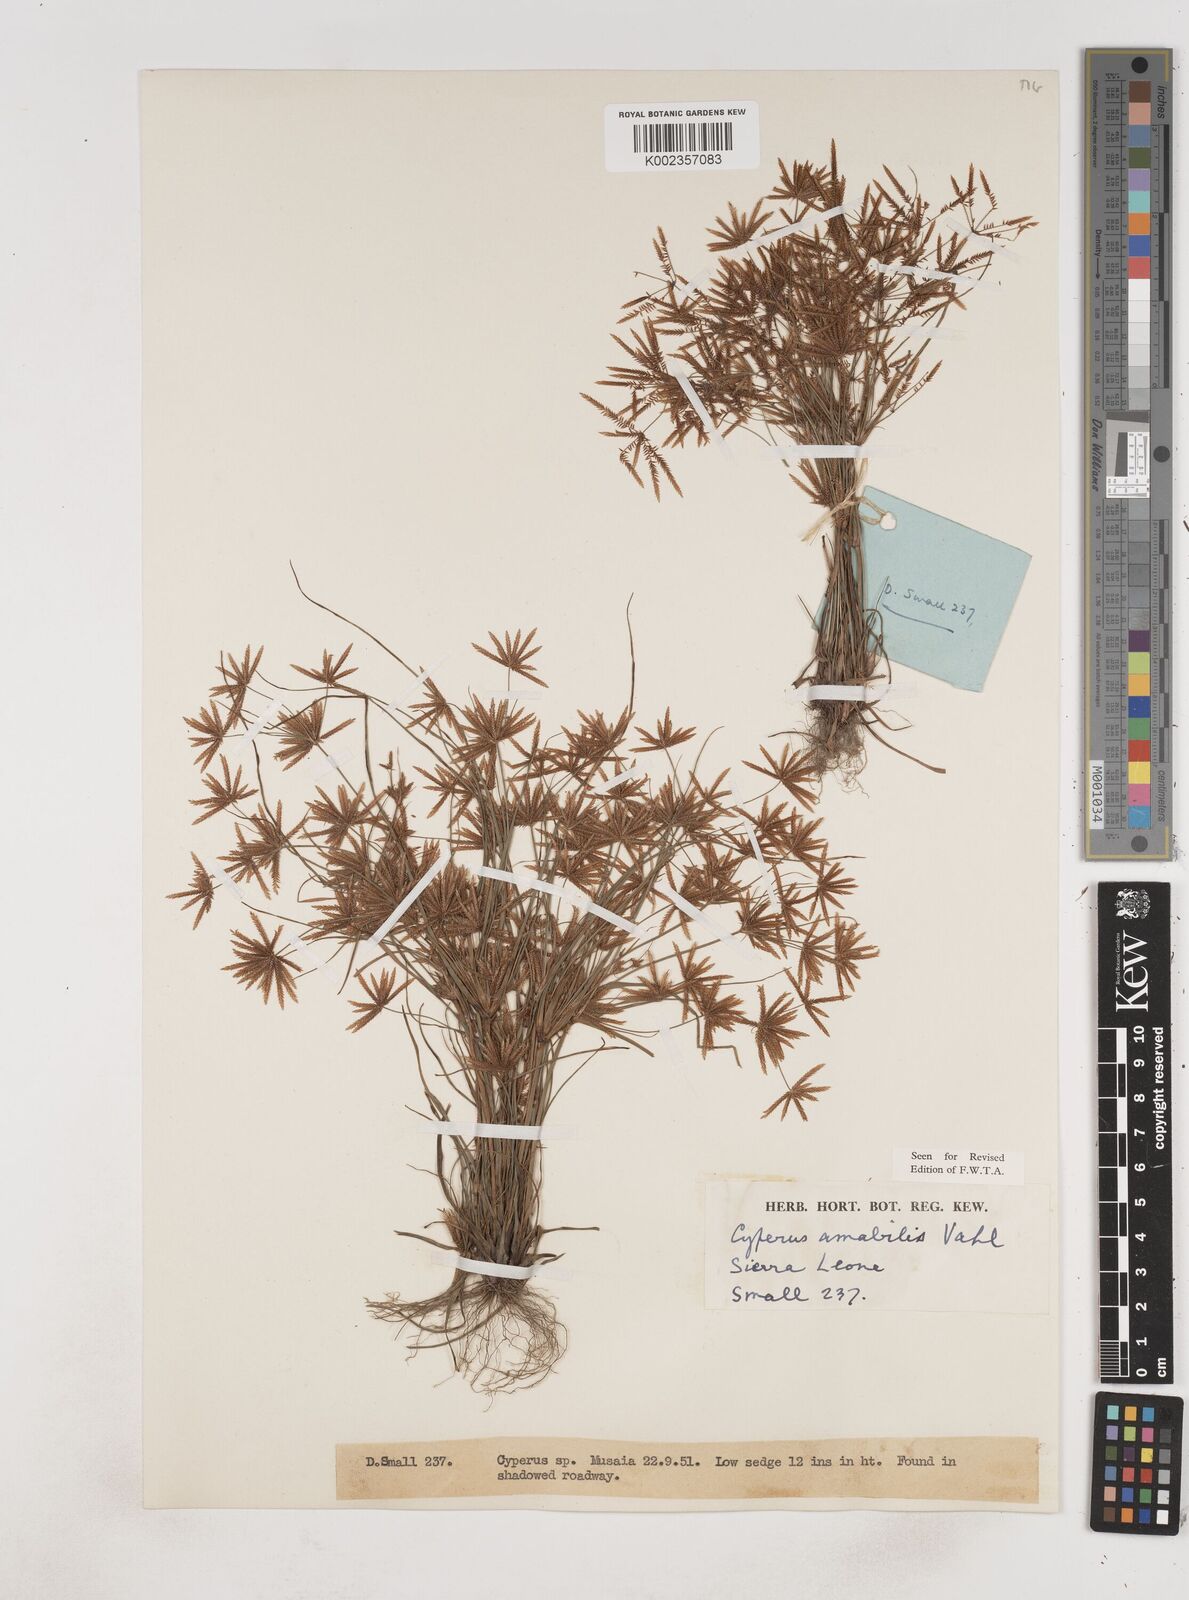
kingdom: Plantae
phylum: Tracheophyta
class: Liliopsida
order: Poales
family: Cyperaceae
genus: Cyperus
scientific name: Cyperus amabilis
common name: Foothill flat sedge
